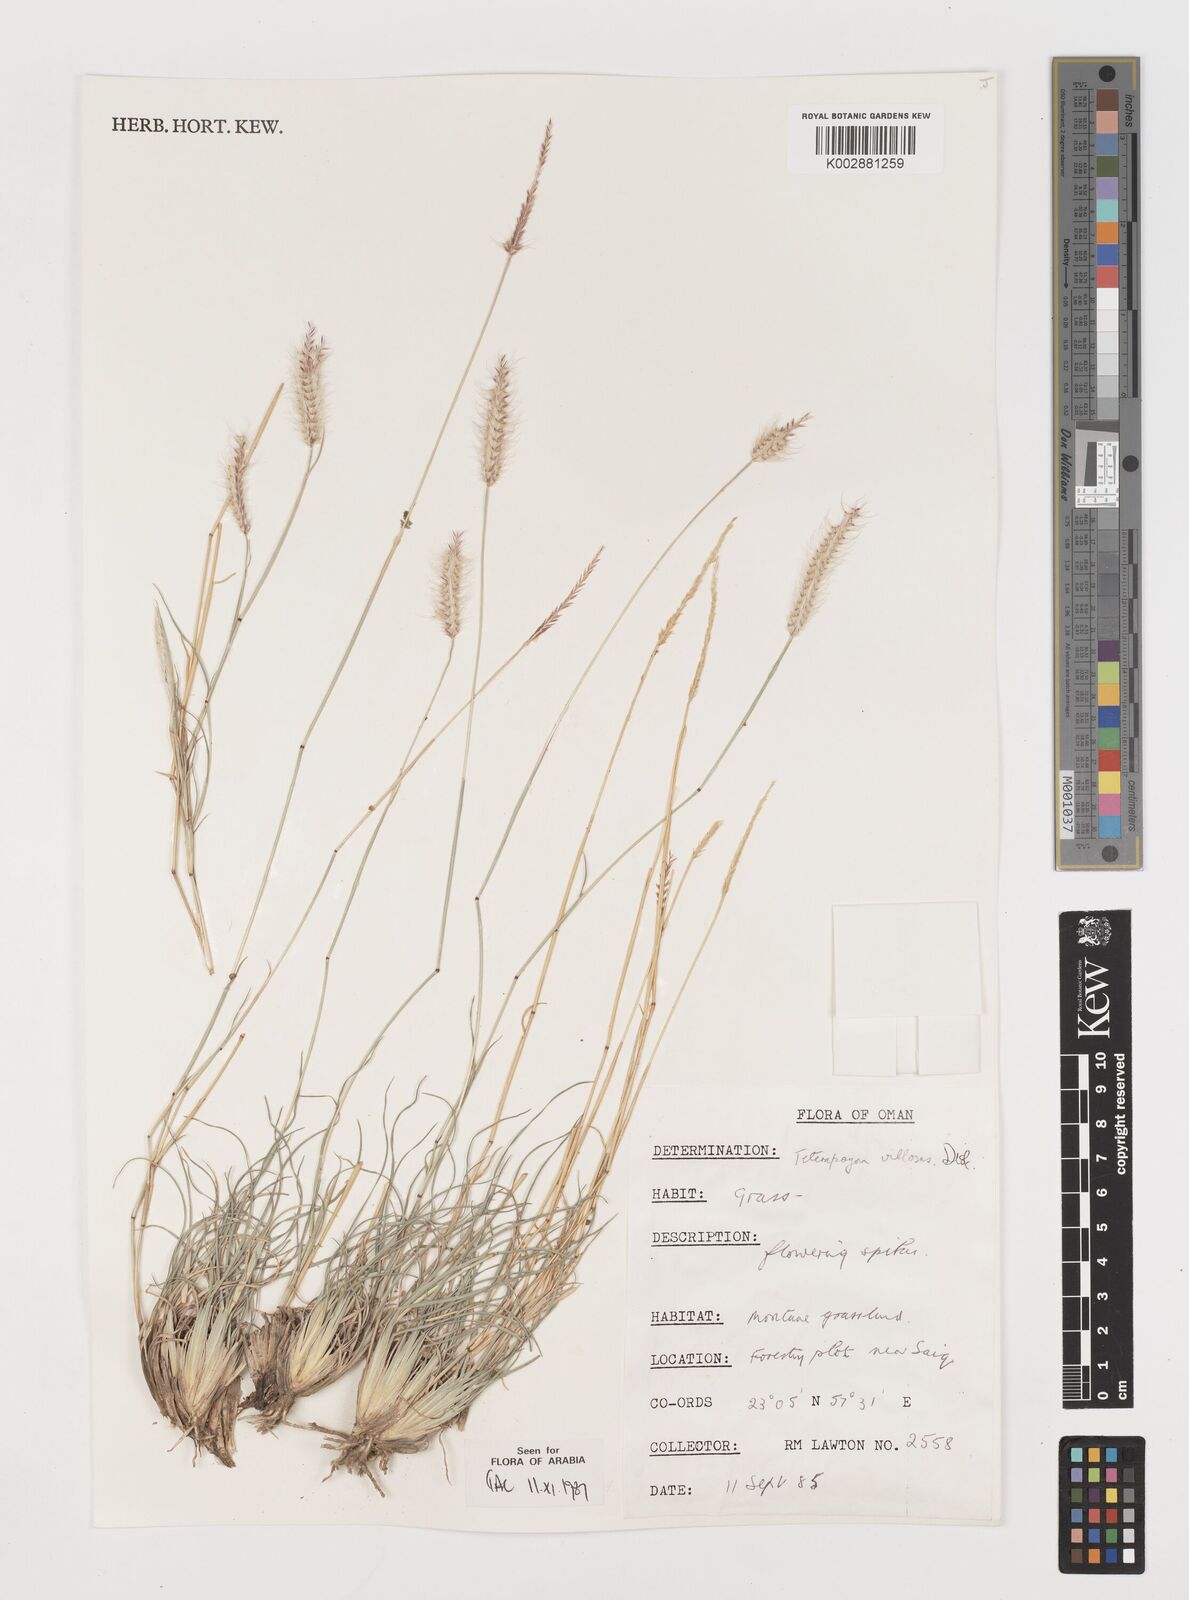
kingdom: Plantae
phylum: Tracheophyta
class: Liliopsida
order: Poales
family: Poaceae
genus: Tetrapogon
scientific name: Tetrapogon villosus
